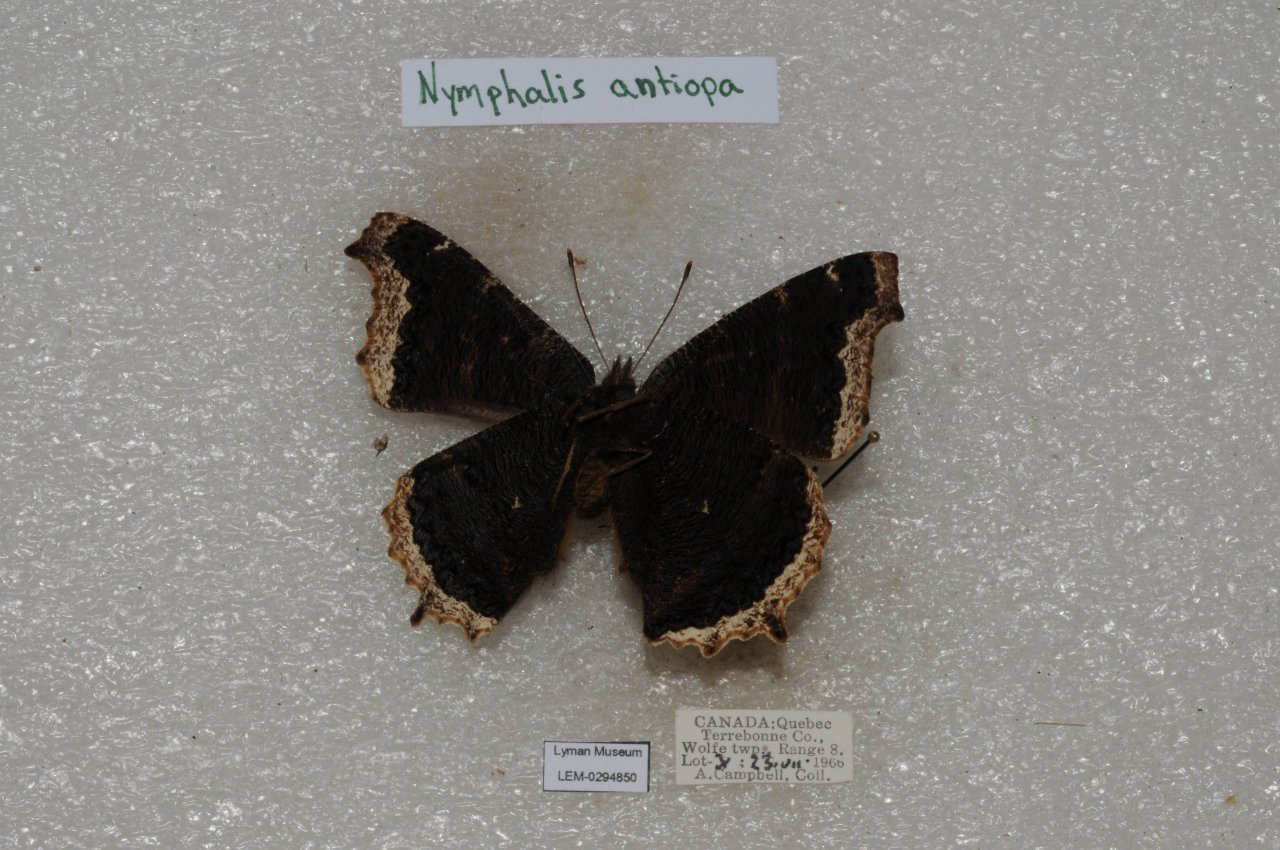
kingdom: Animalia
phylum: Arthropoda
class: Insecta
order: Lepidoptera
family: Nymphalidae
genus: Nymphalis
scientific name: Nymphalis antiopa
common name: Mourning Cloak
